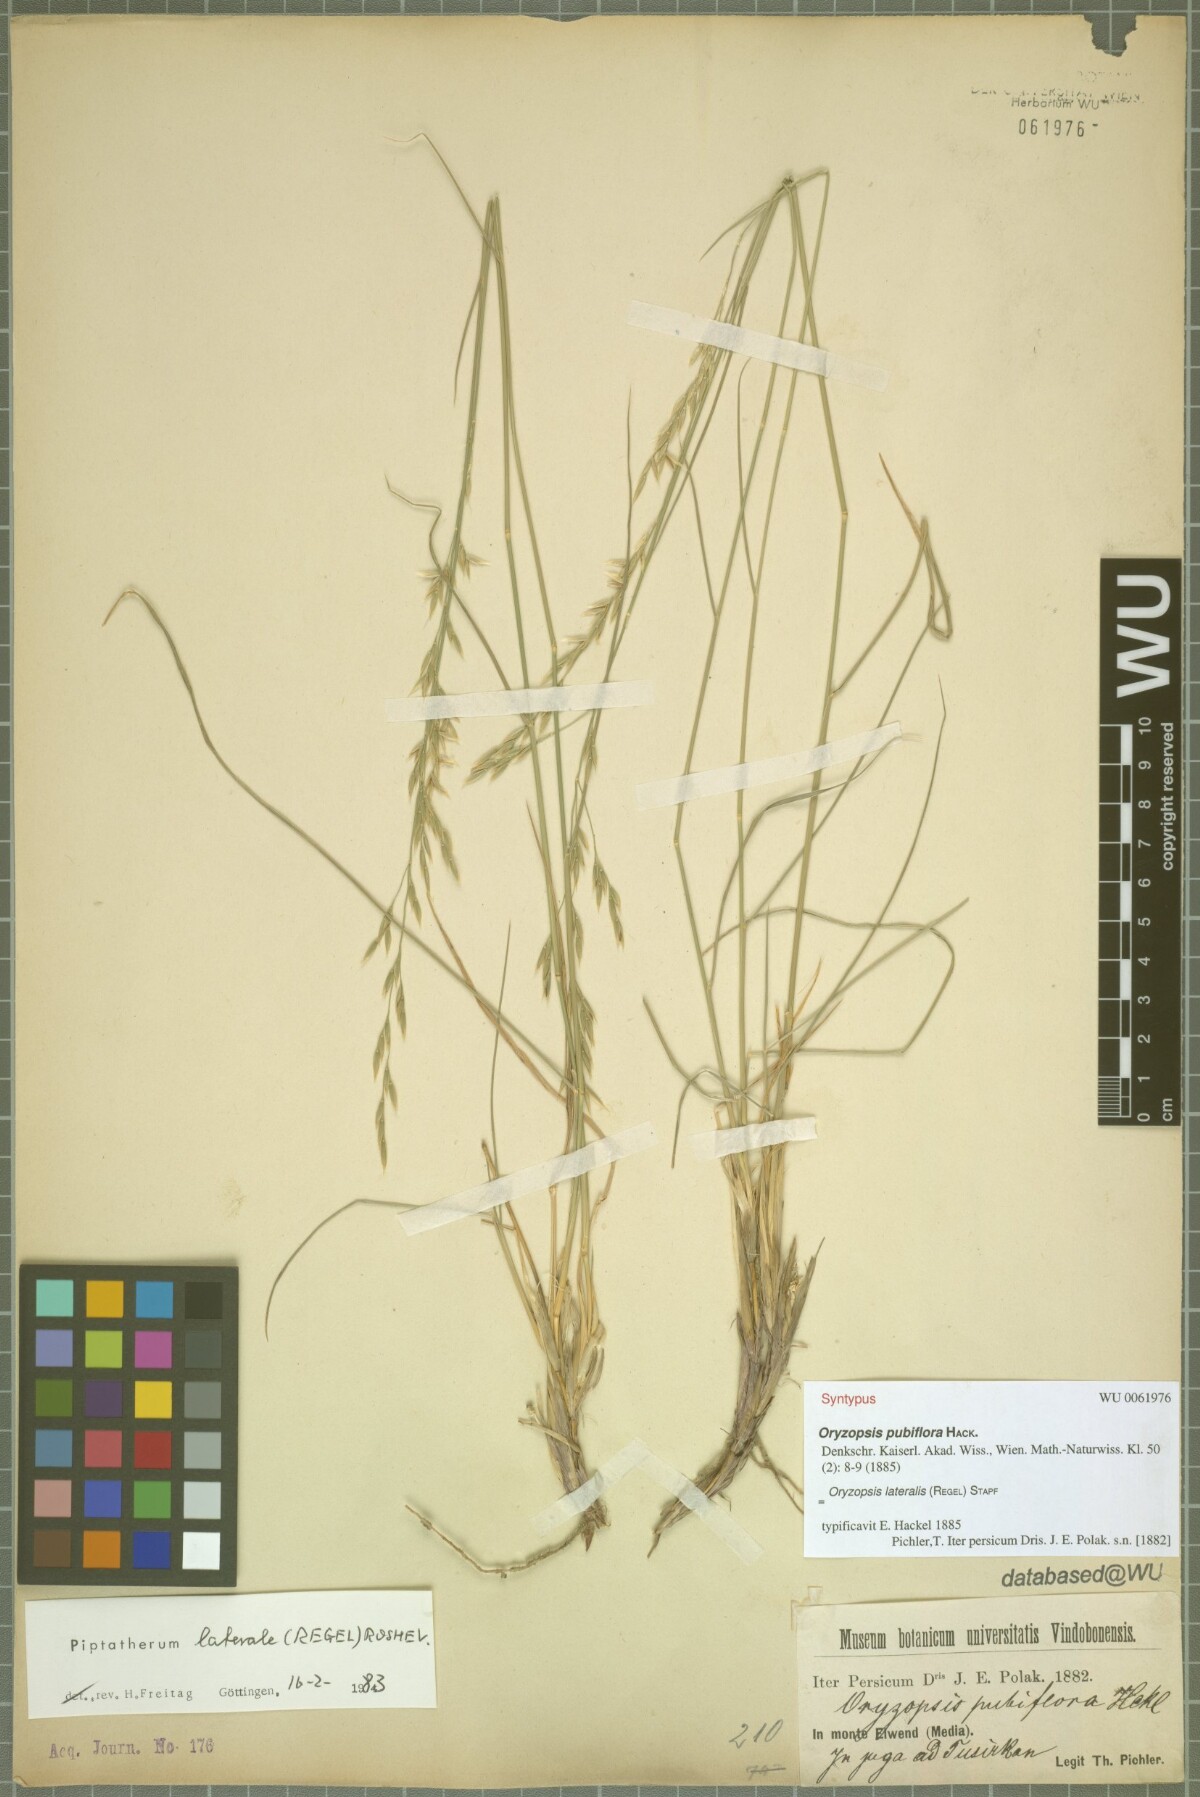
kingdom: Plantae
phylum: Tracheophyta
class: Liliopsida
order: Poales
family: Poaceae
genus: Piptatherum
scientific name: Piptatherum laterale
